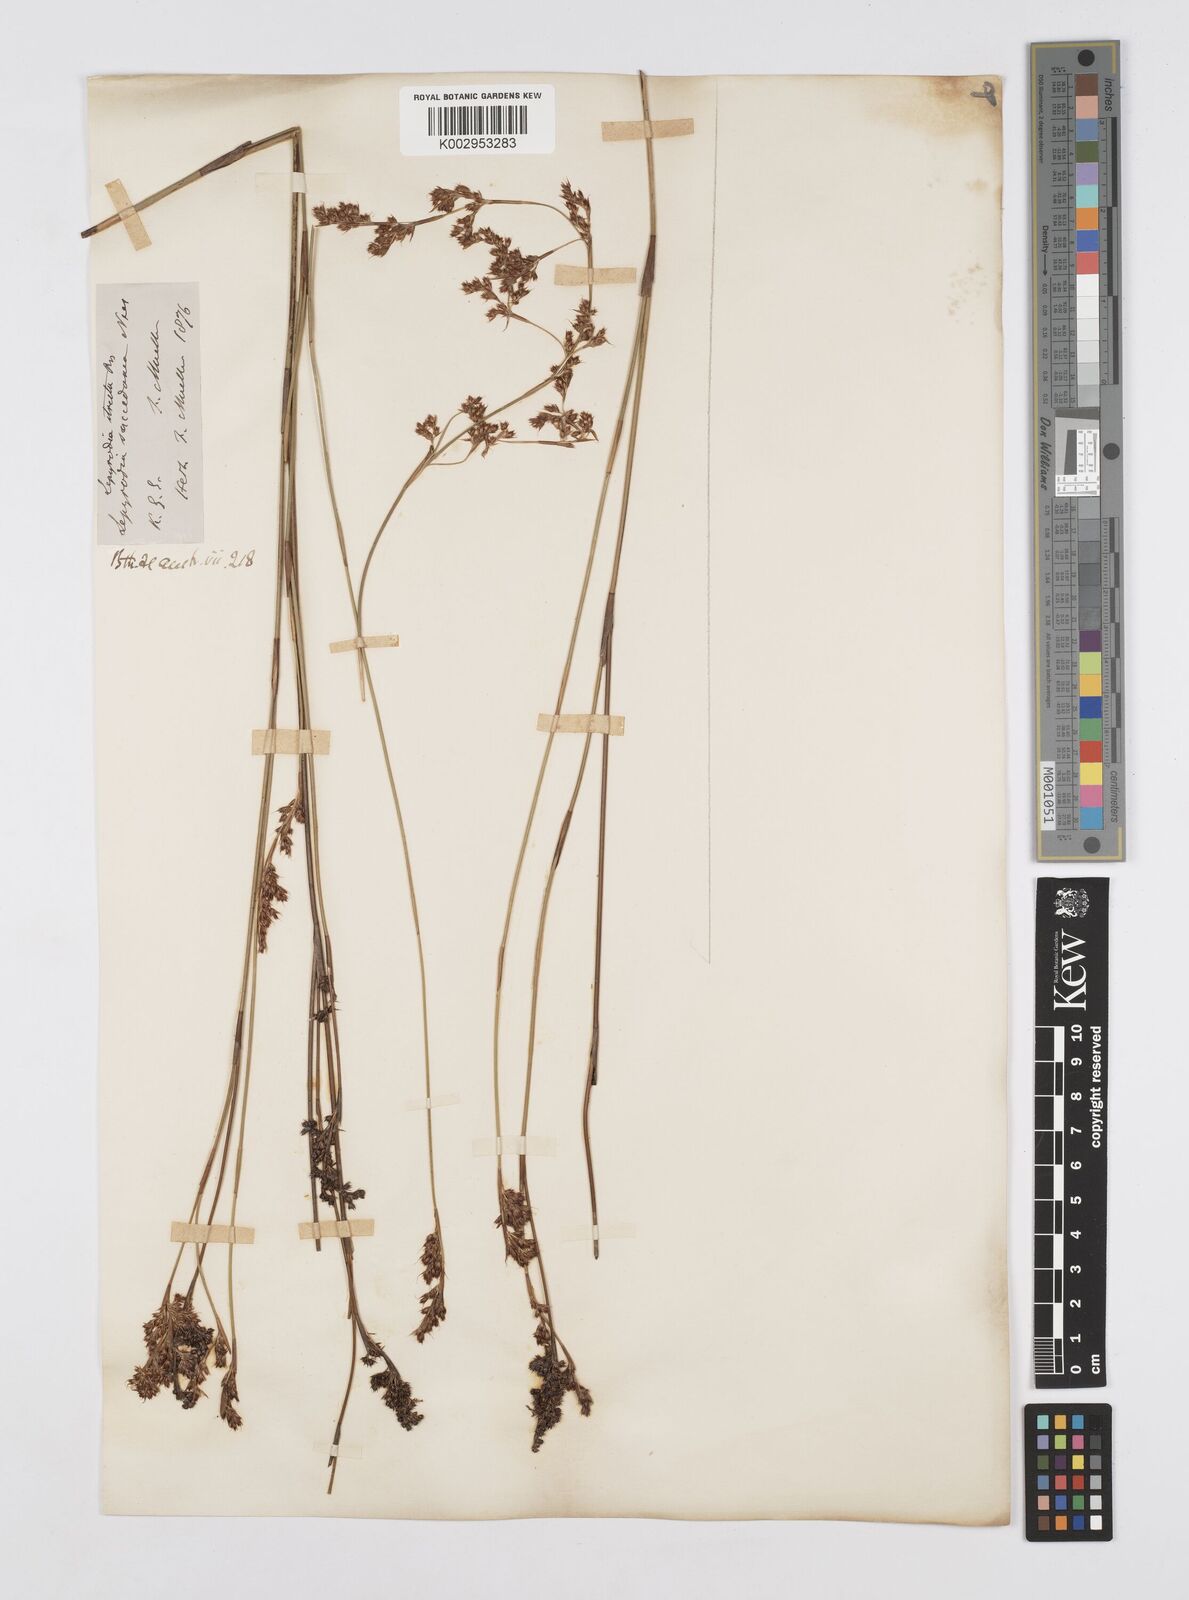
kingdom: Plantae
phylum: Tracheophyta
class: Liliopsida
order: Poales
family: Restionaceae
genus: Sporadanthus
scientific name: Sporadanthus strictus
